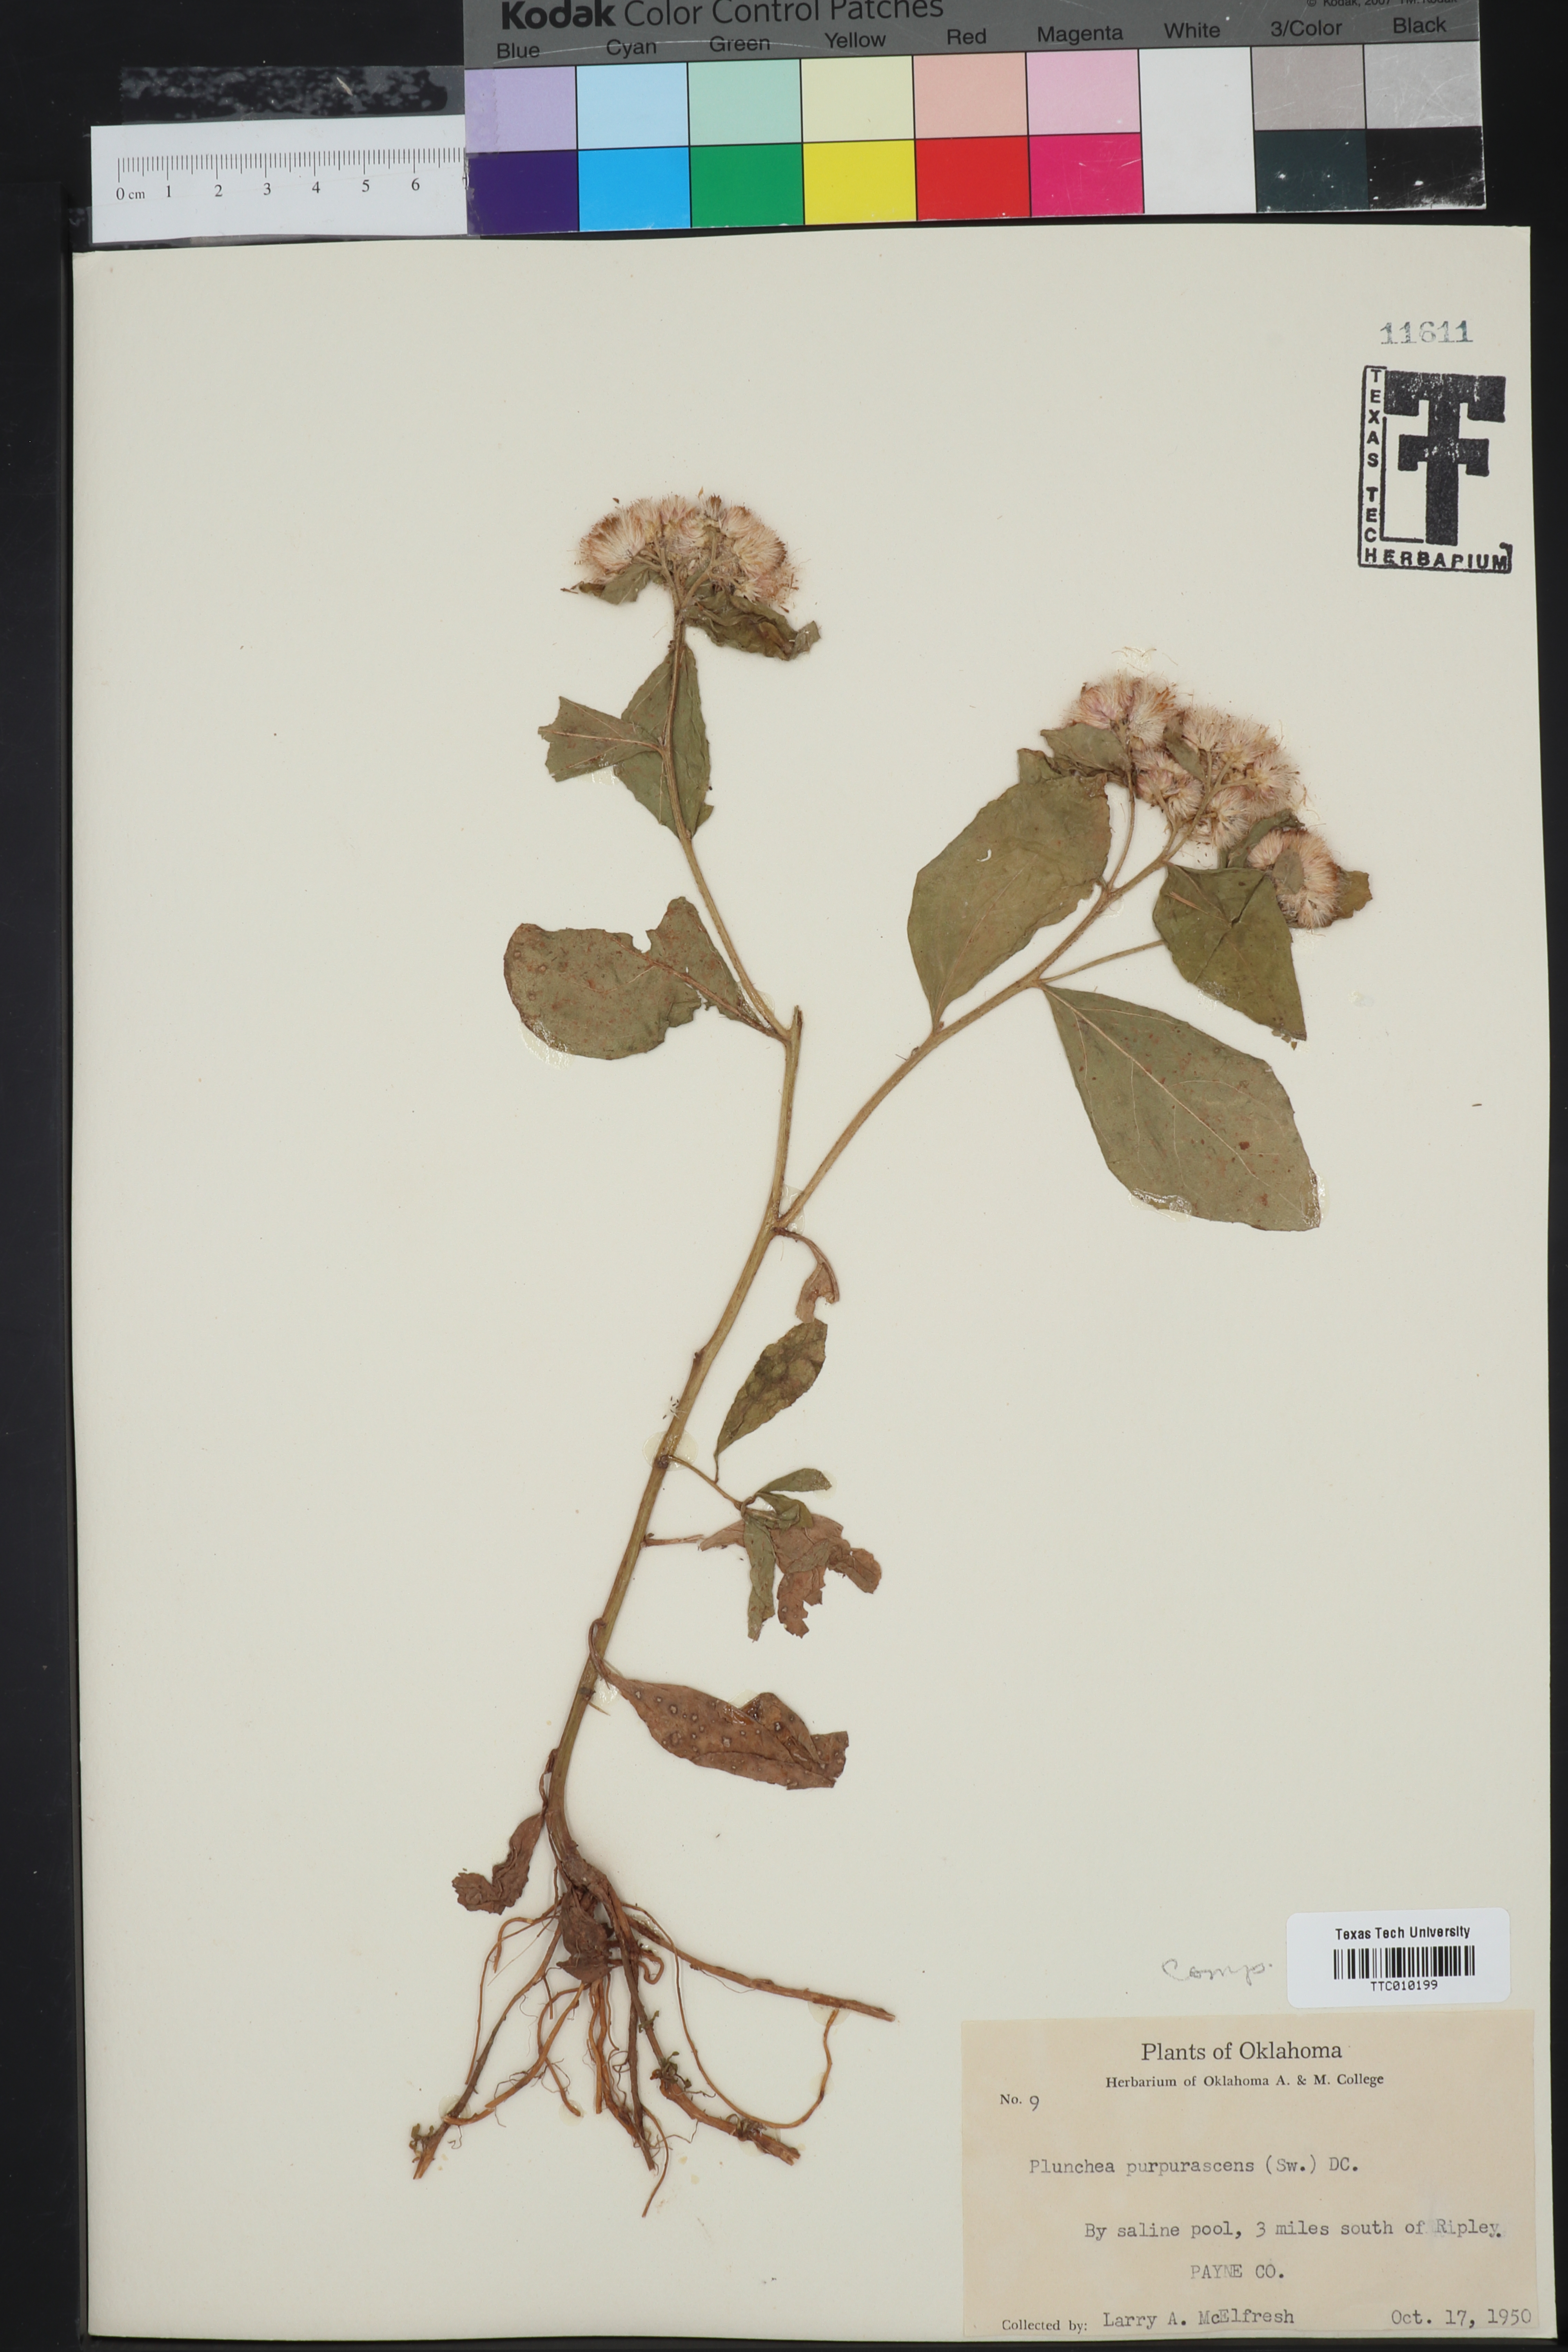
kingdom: Plantae
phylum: Tracheophyta
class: Magnoliopsida
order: Asterales
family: Asteraceae
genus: Pluchea
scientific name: Pluchea odorata
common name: Saltmarsh fleabane
